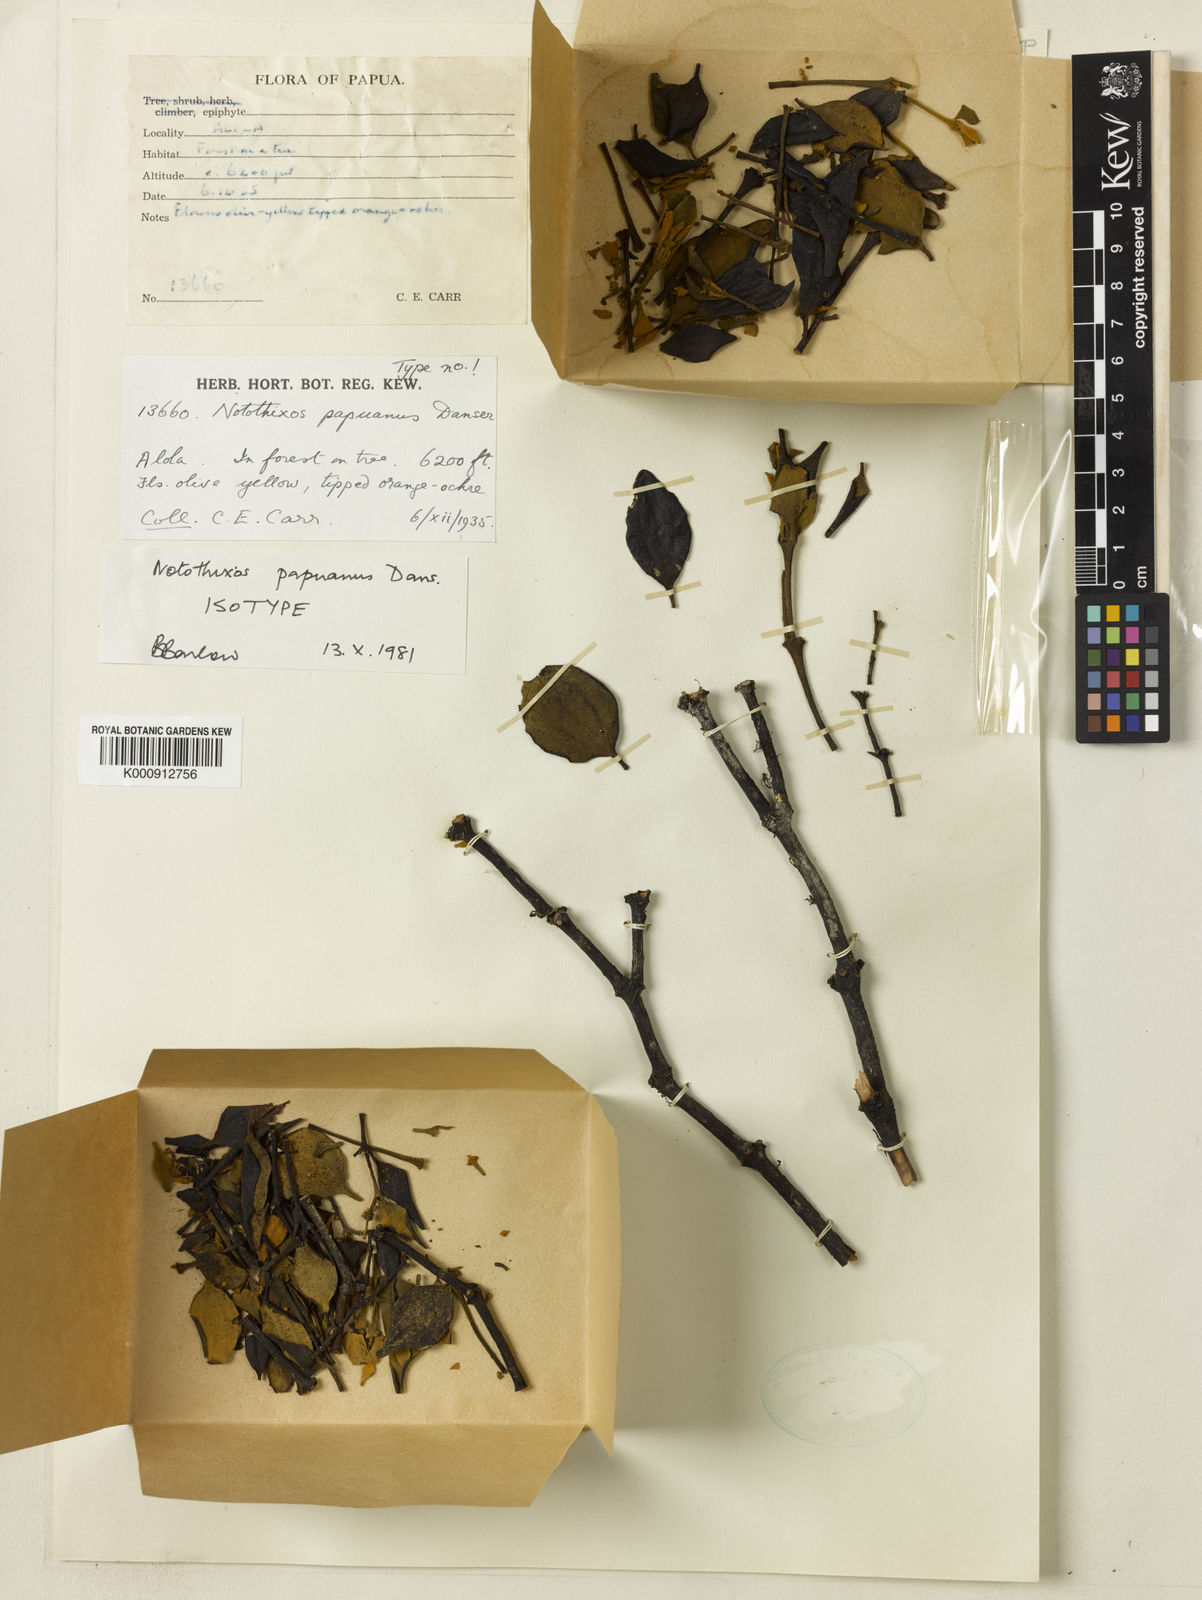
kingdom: Plantae
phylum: Tracheophyta
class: Magnoliopsida
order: Santalales
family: Viscaceae
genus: Notothixos
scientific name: Notothixos papuanus
